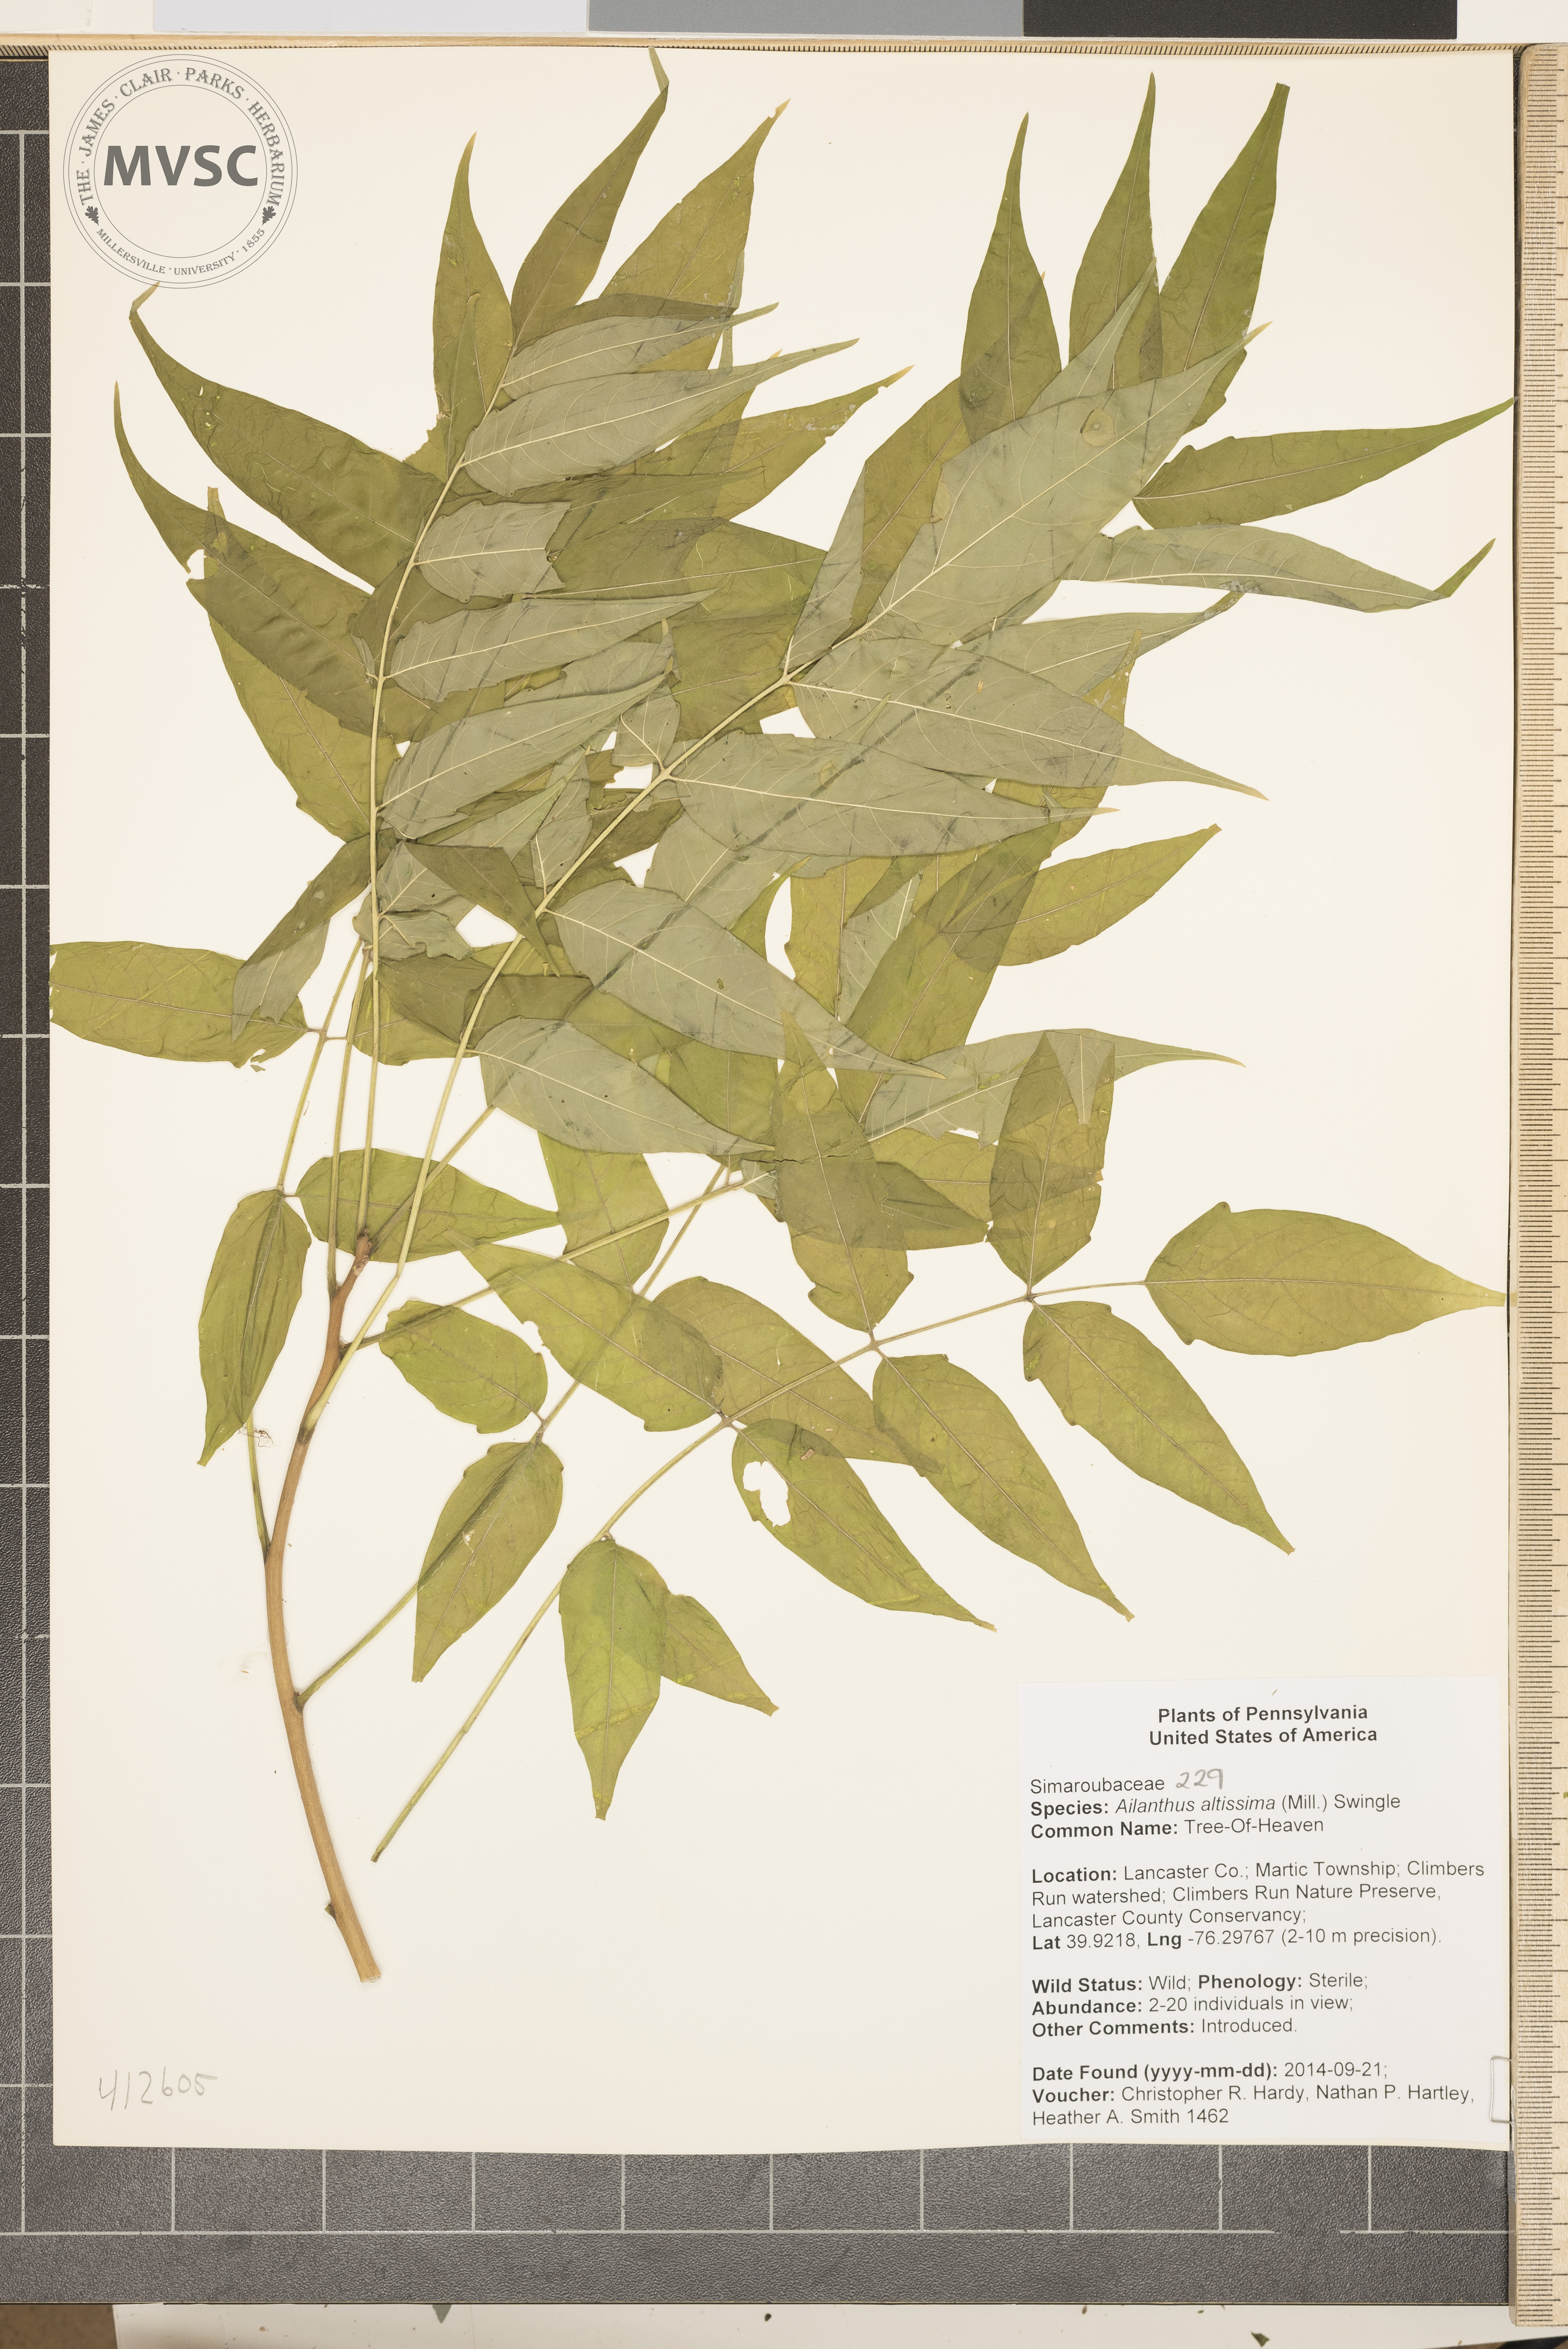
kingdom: Plantae
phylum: Tracheophyta
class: Magnoliopsida
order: Sapindales
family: Simaroubaceae
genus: Ailanthus
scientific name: Ailanthus altissima
